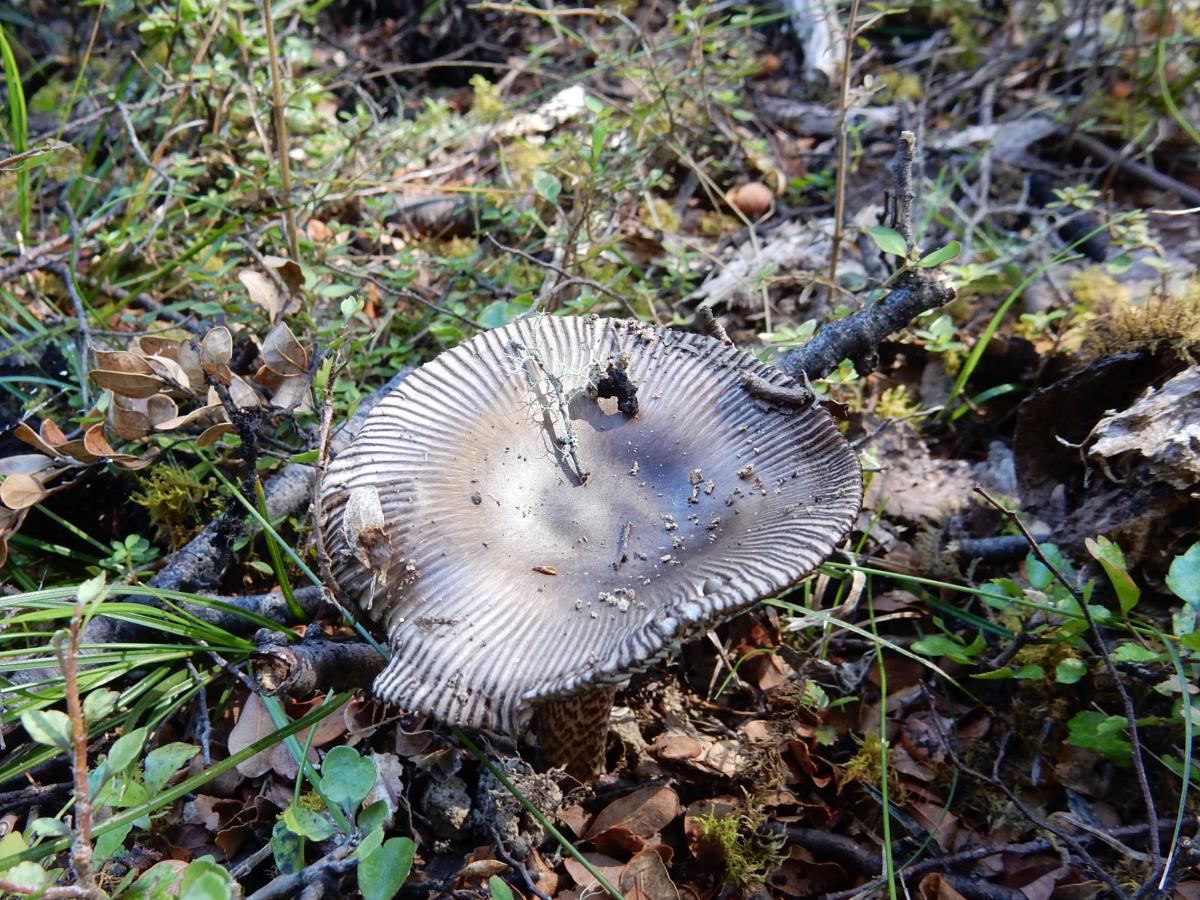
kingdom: Fungi
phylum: Basidiomycota
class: Agaricomycetes
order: Agaricales
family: Amanitaceae
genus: Amanita
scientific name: Amanita pekeoides
